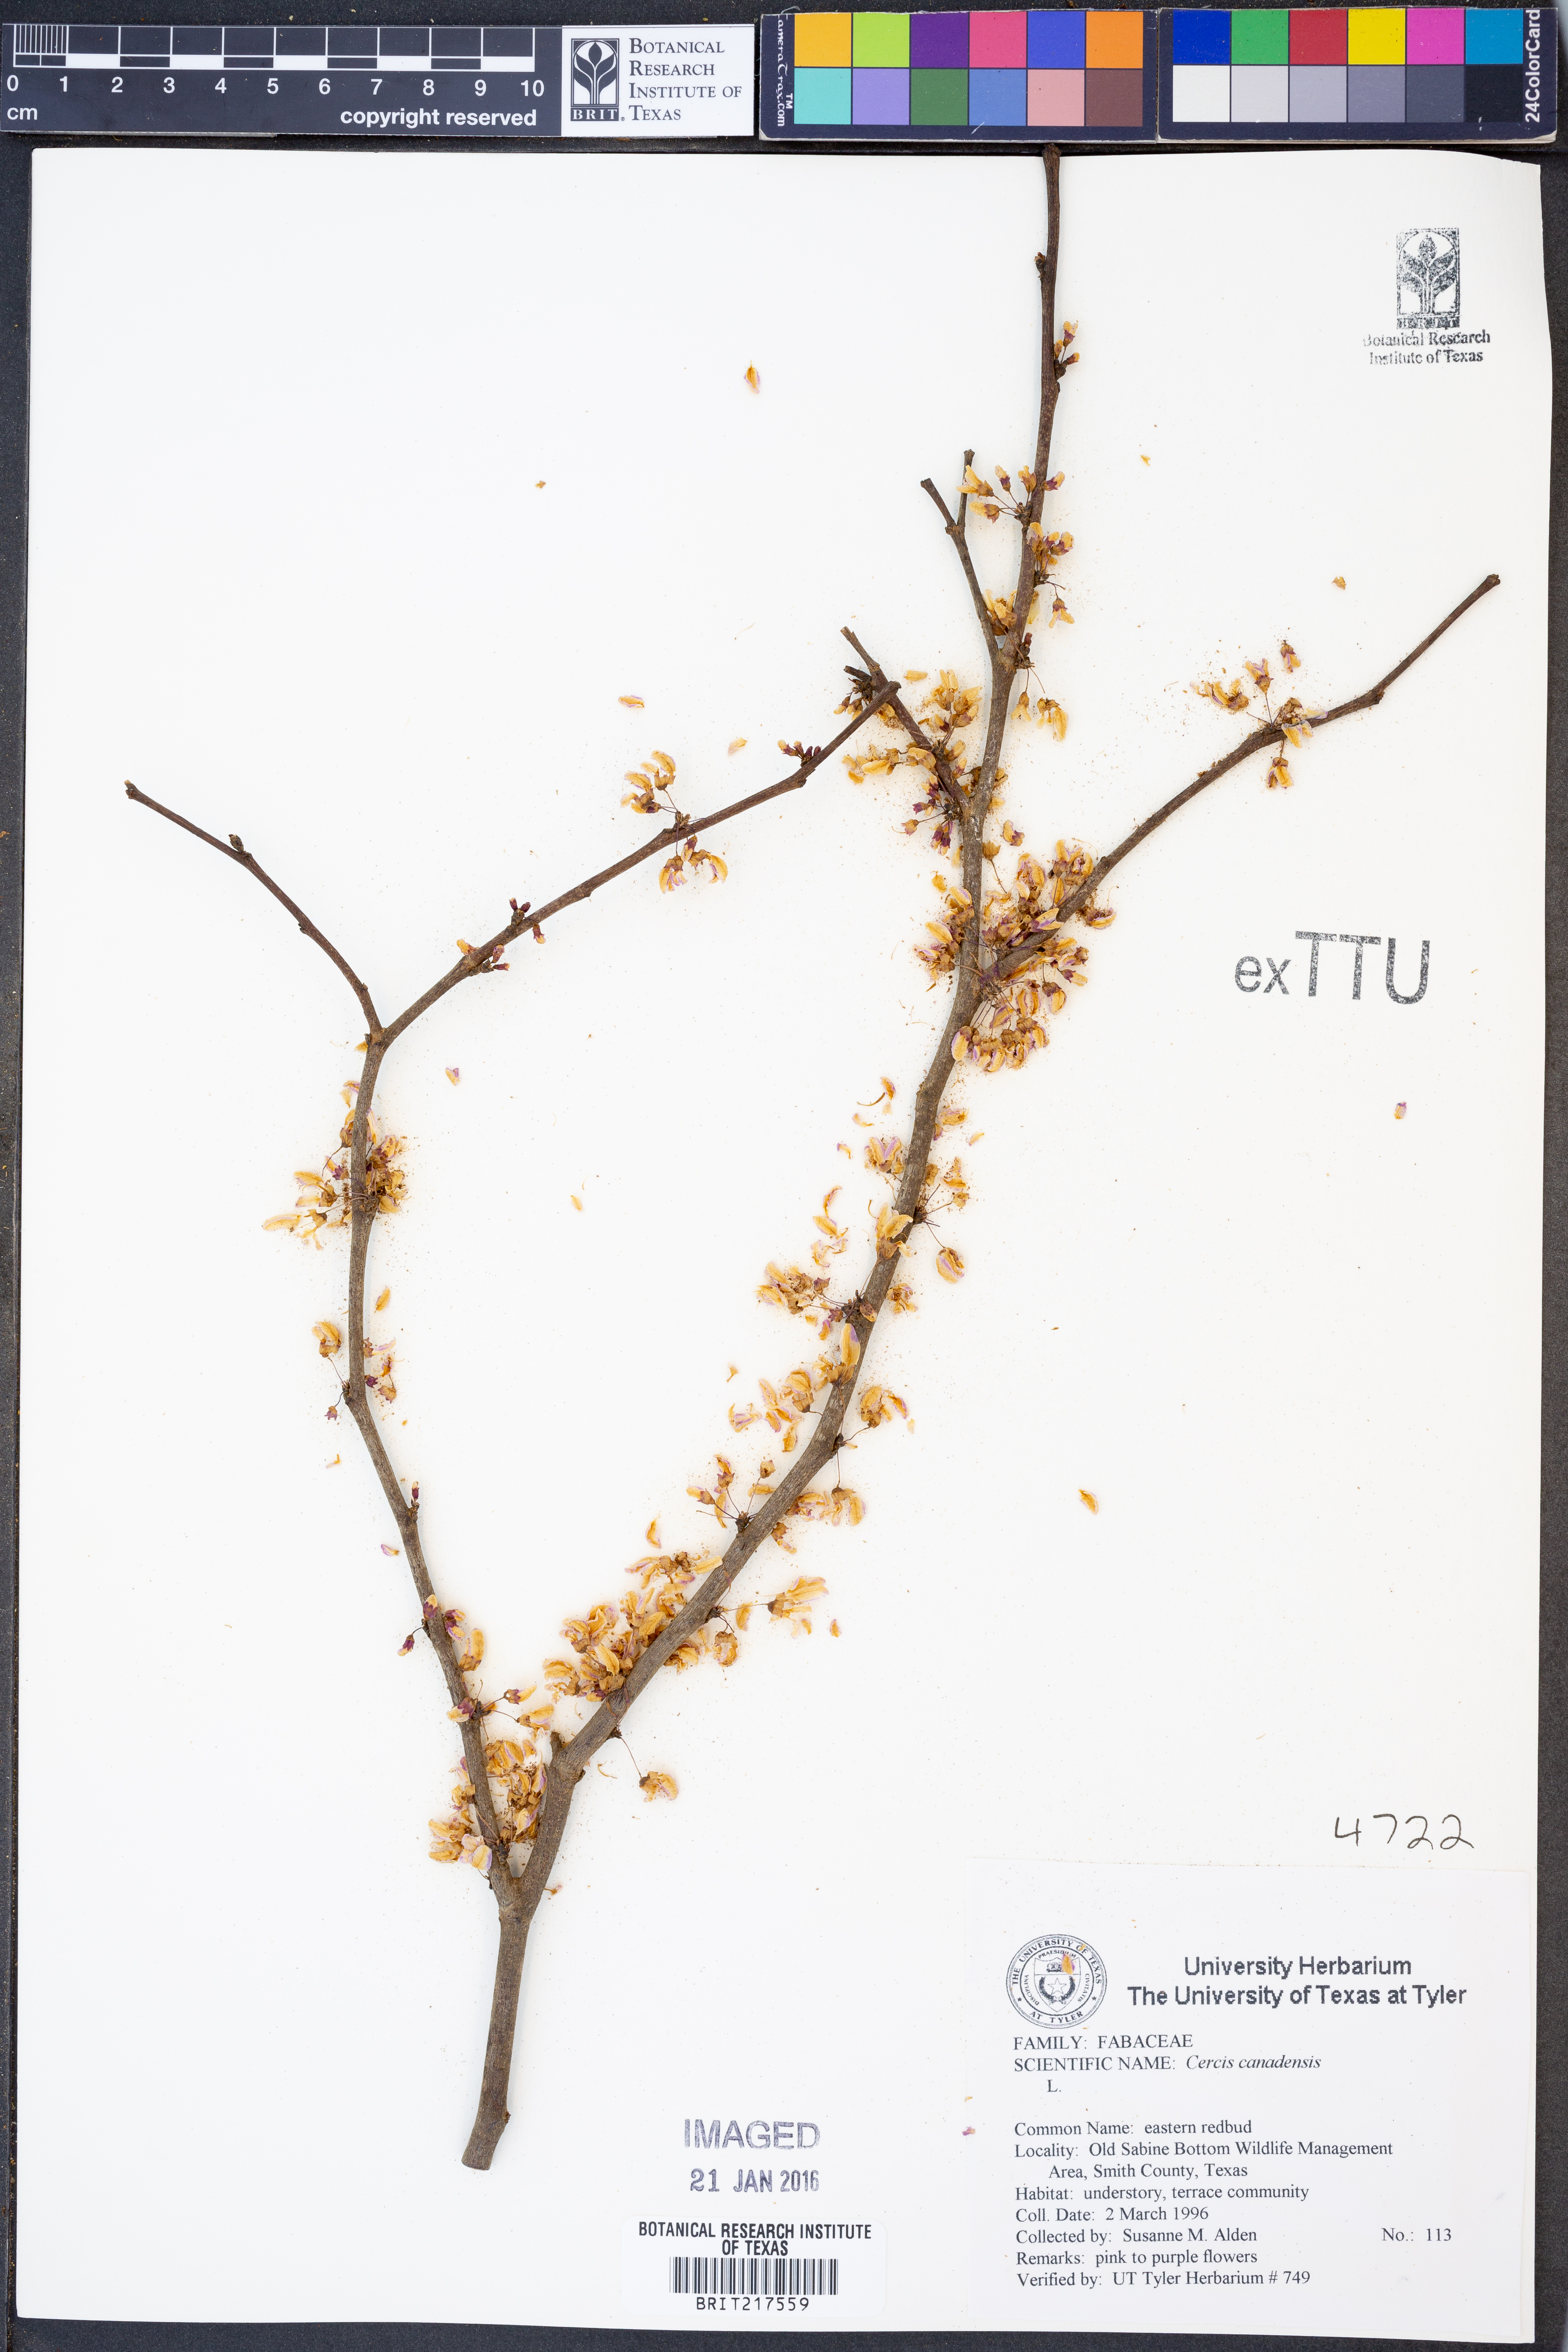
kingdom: Plantae
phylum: Tracheophyta
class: Magnoliopsida
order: Fabales
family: Fabaceae
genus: Cercis
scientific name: Cercis canadensis
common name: Eastern redbud
